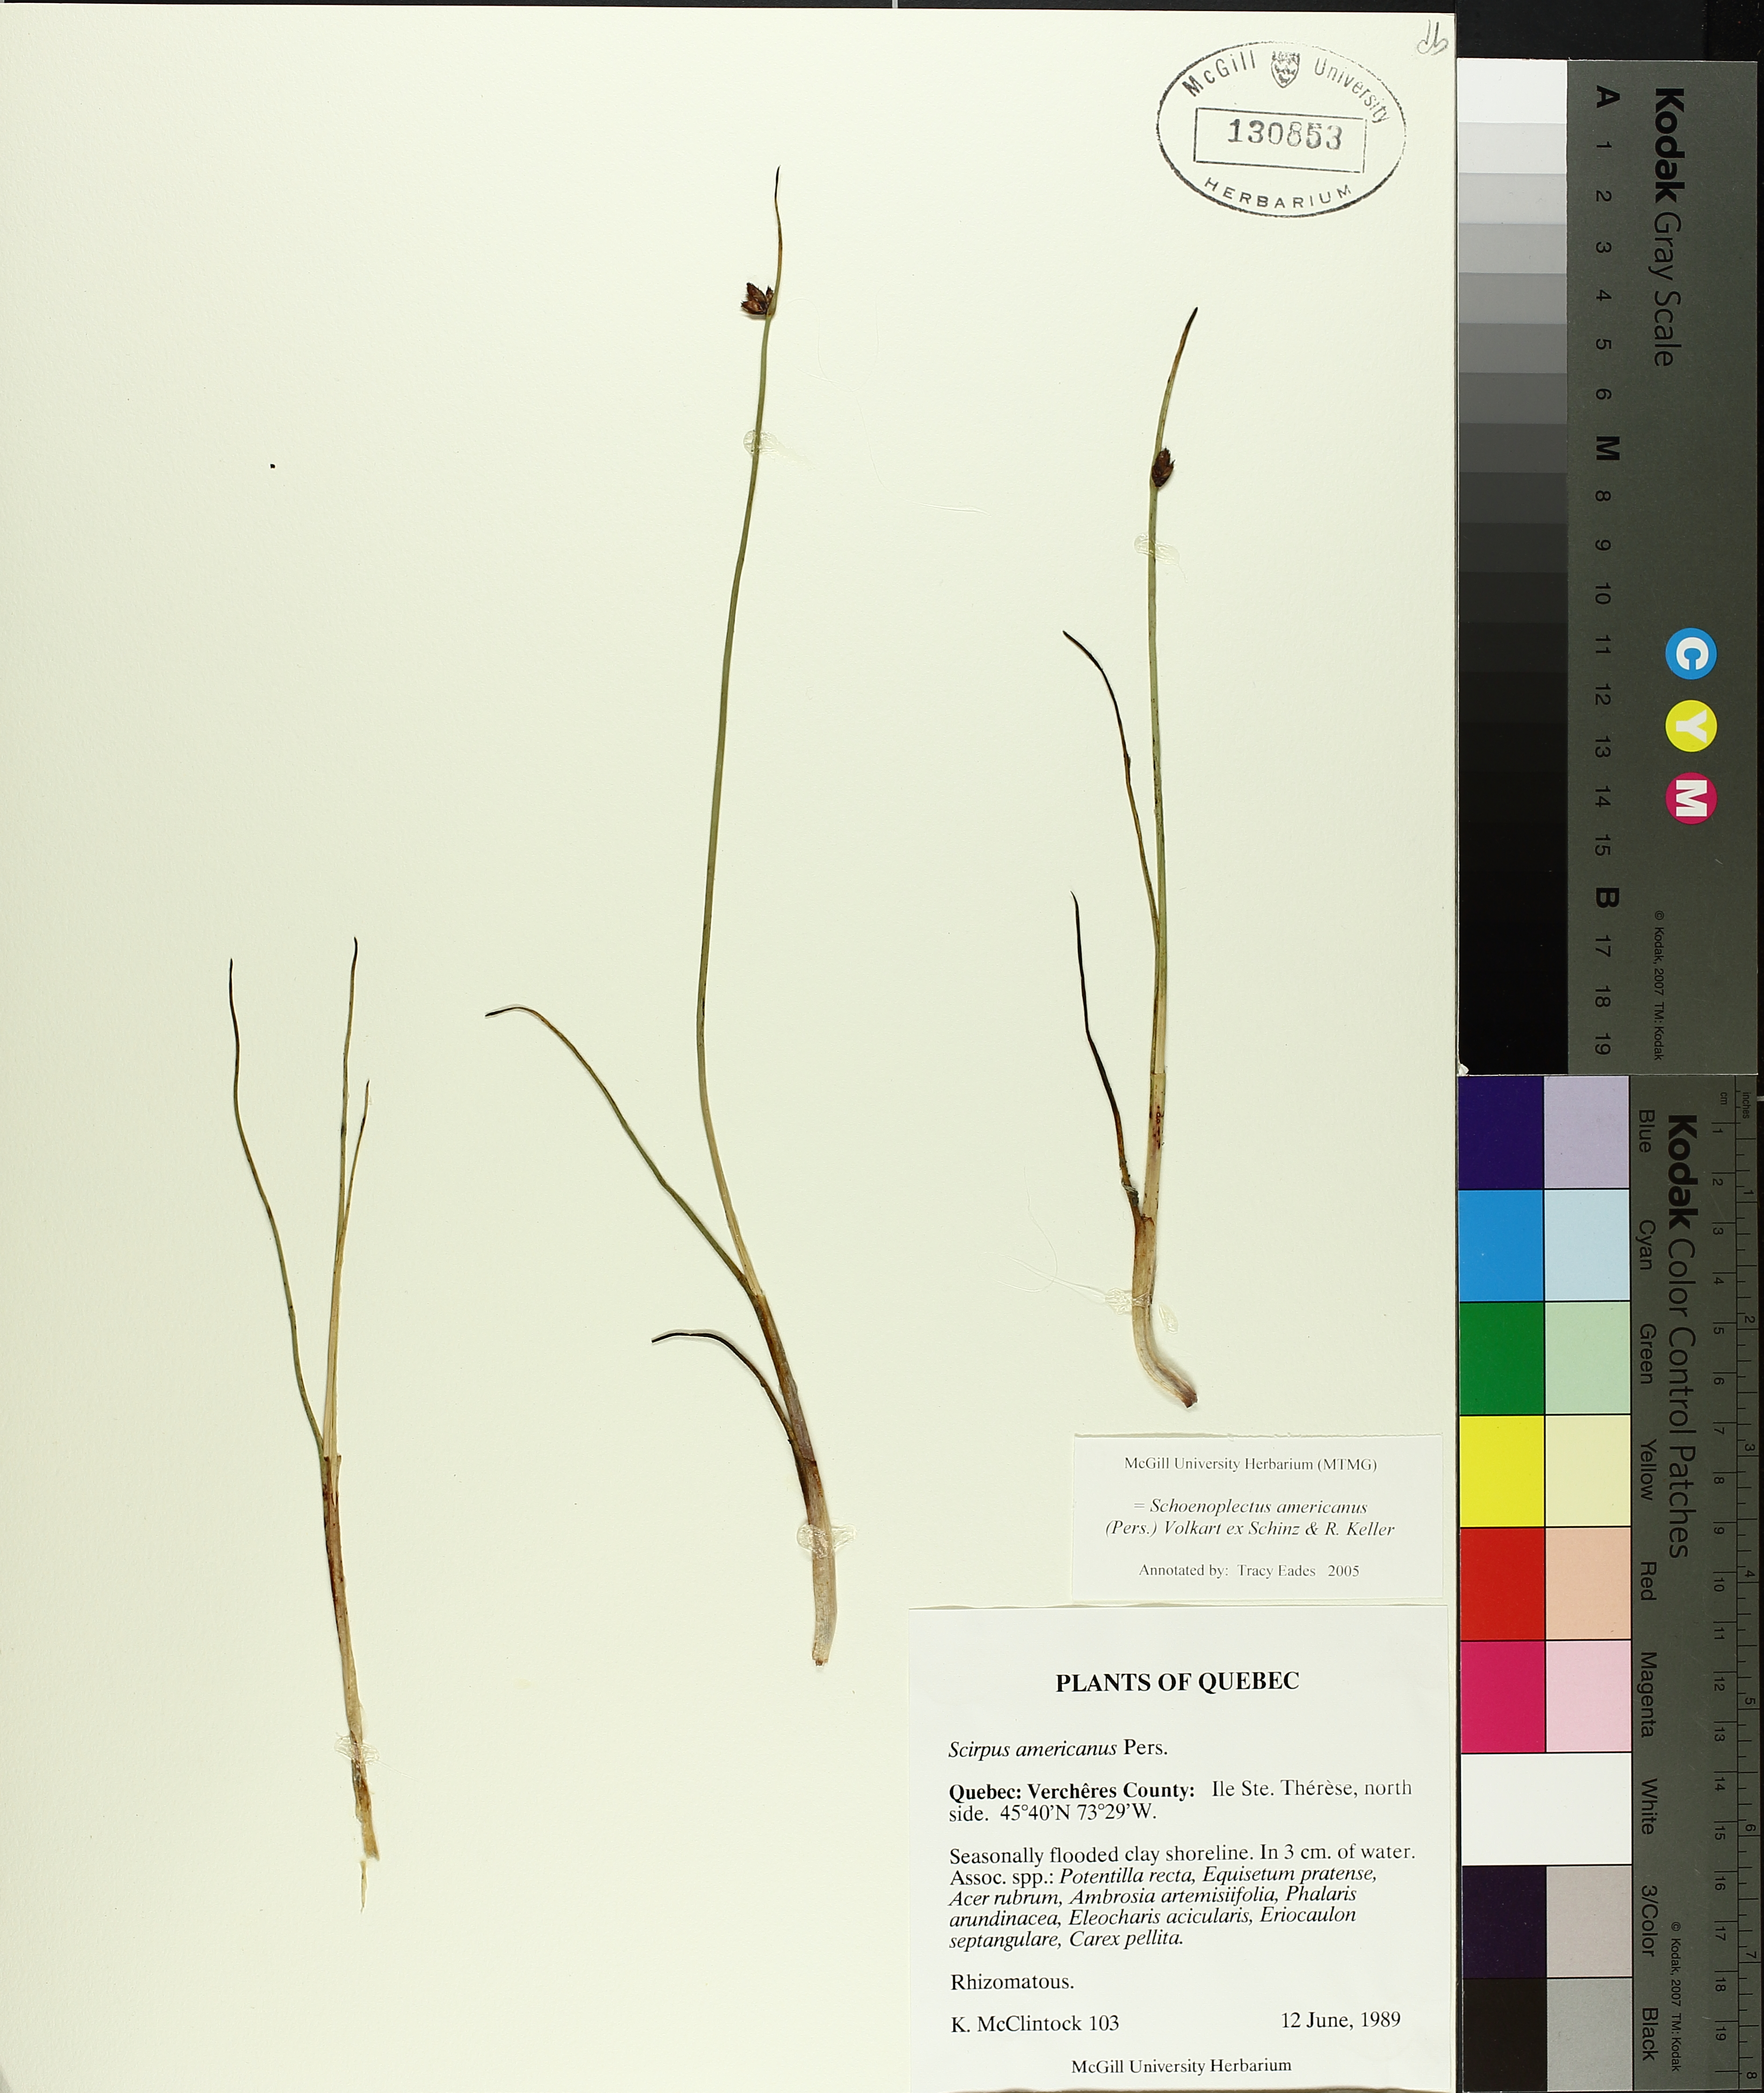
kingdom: Plantae
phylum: Tracheophyta
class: Liliopsida
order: Poales
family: Cyperaceae
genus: Schoenoplectus
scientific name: Schoenoplectus americanus
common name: American three-square bulrush
